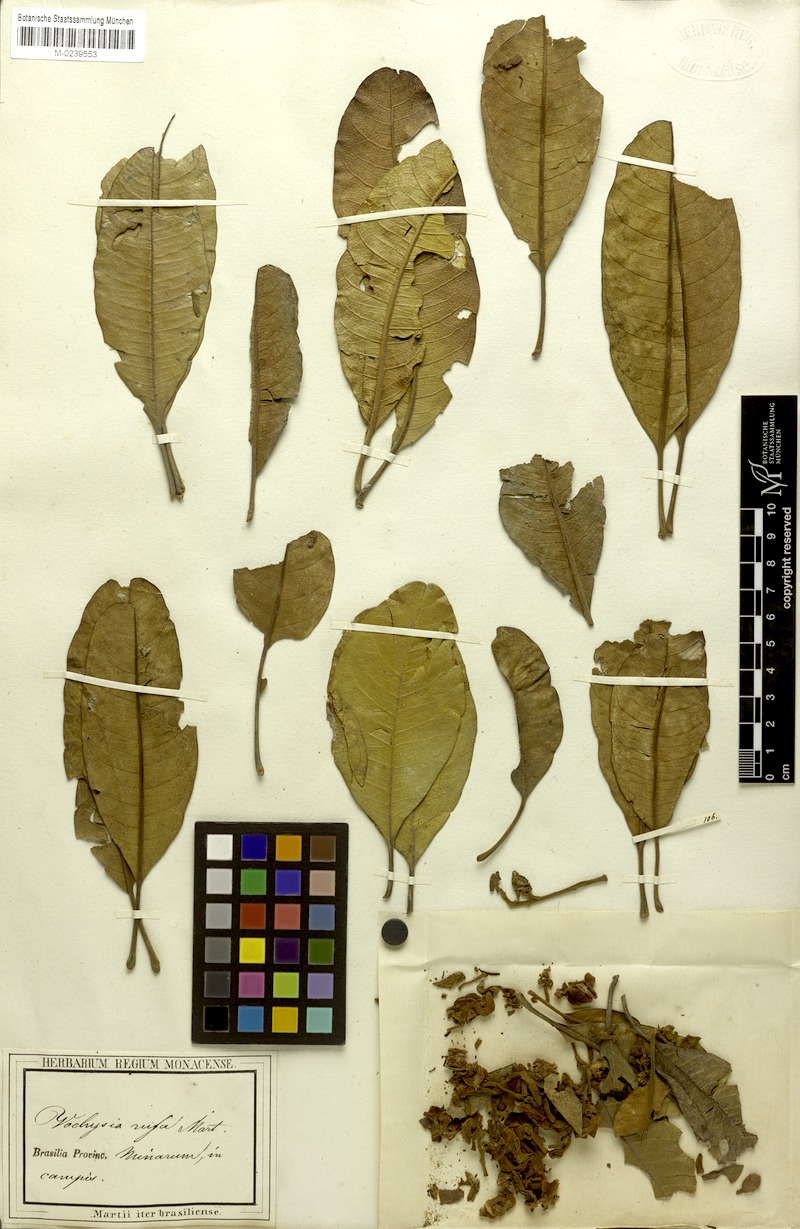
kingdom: Plantae
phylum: Tracheophyta
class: Magnoliopsida
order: Myrtales
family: Vochysiaceae
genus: Vochysia
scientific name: Vochysia rufa
